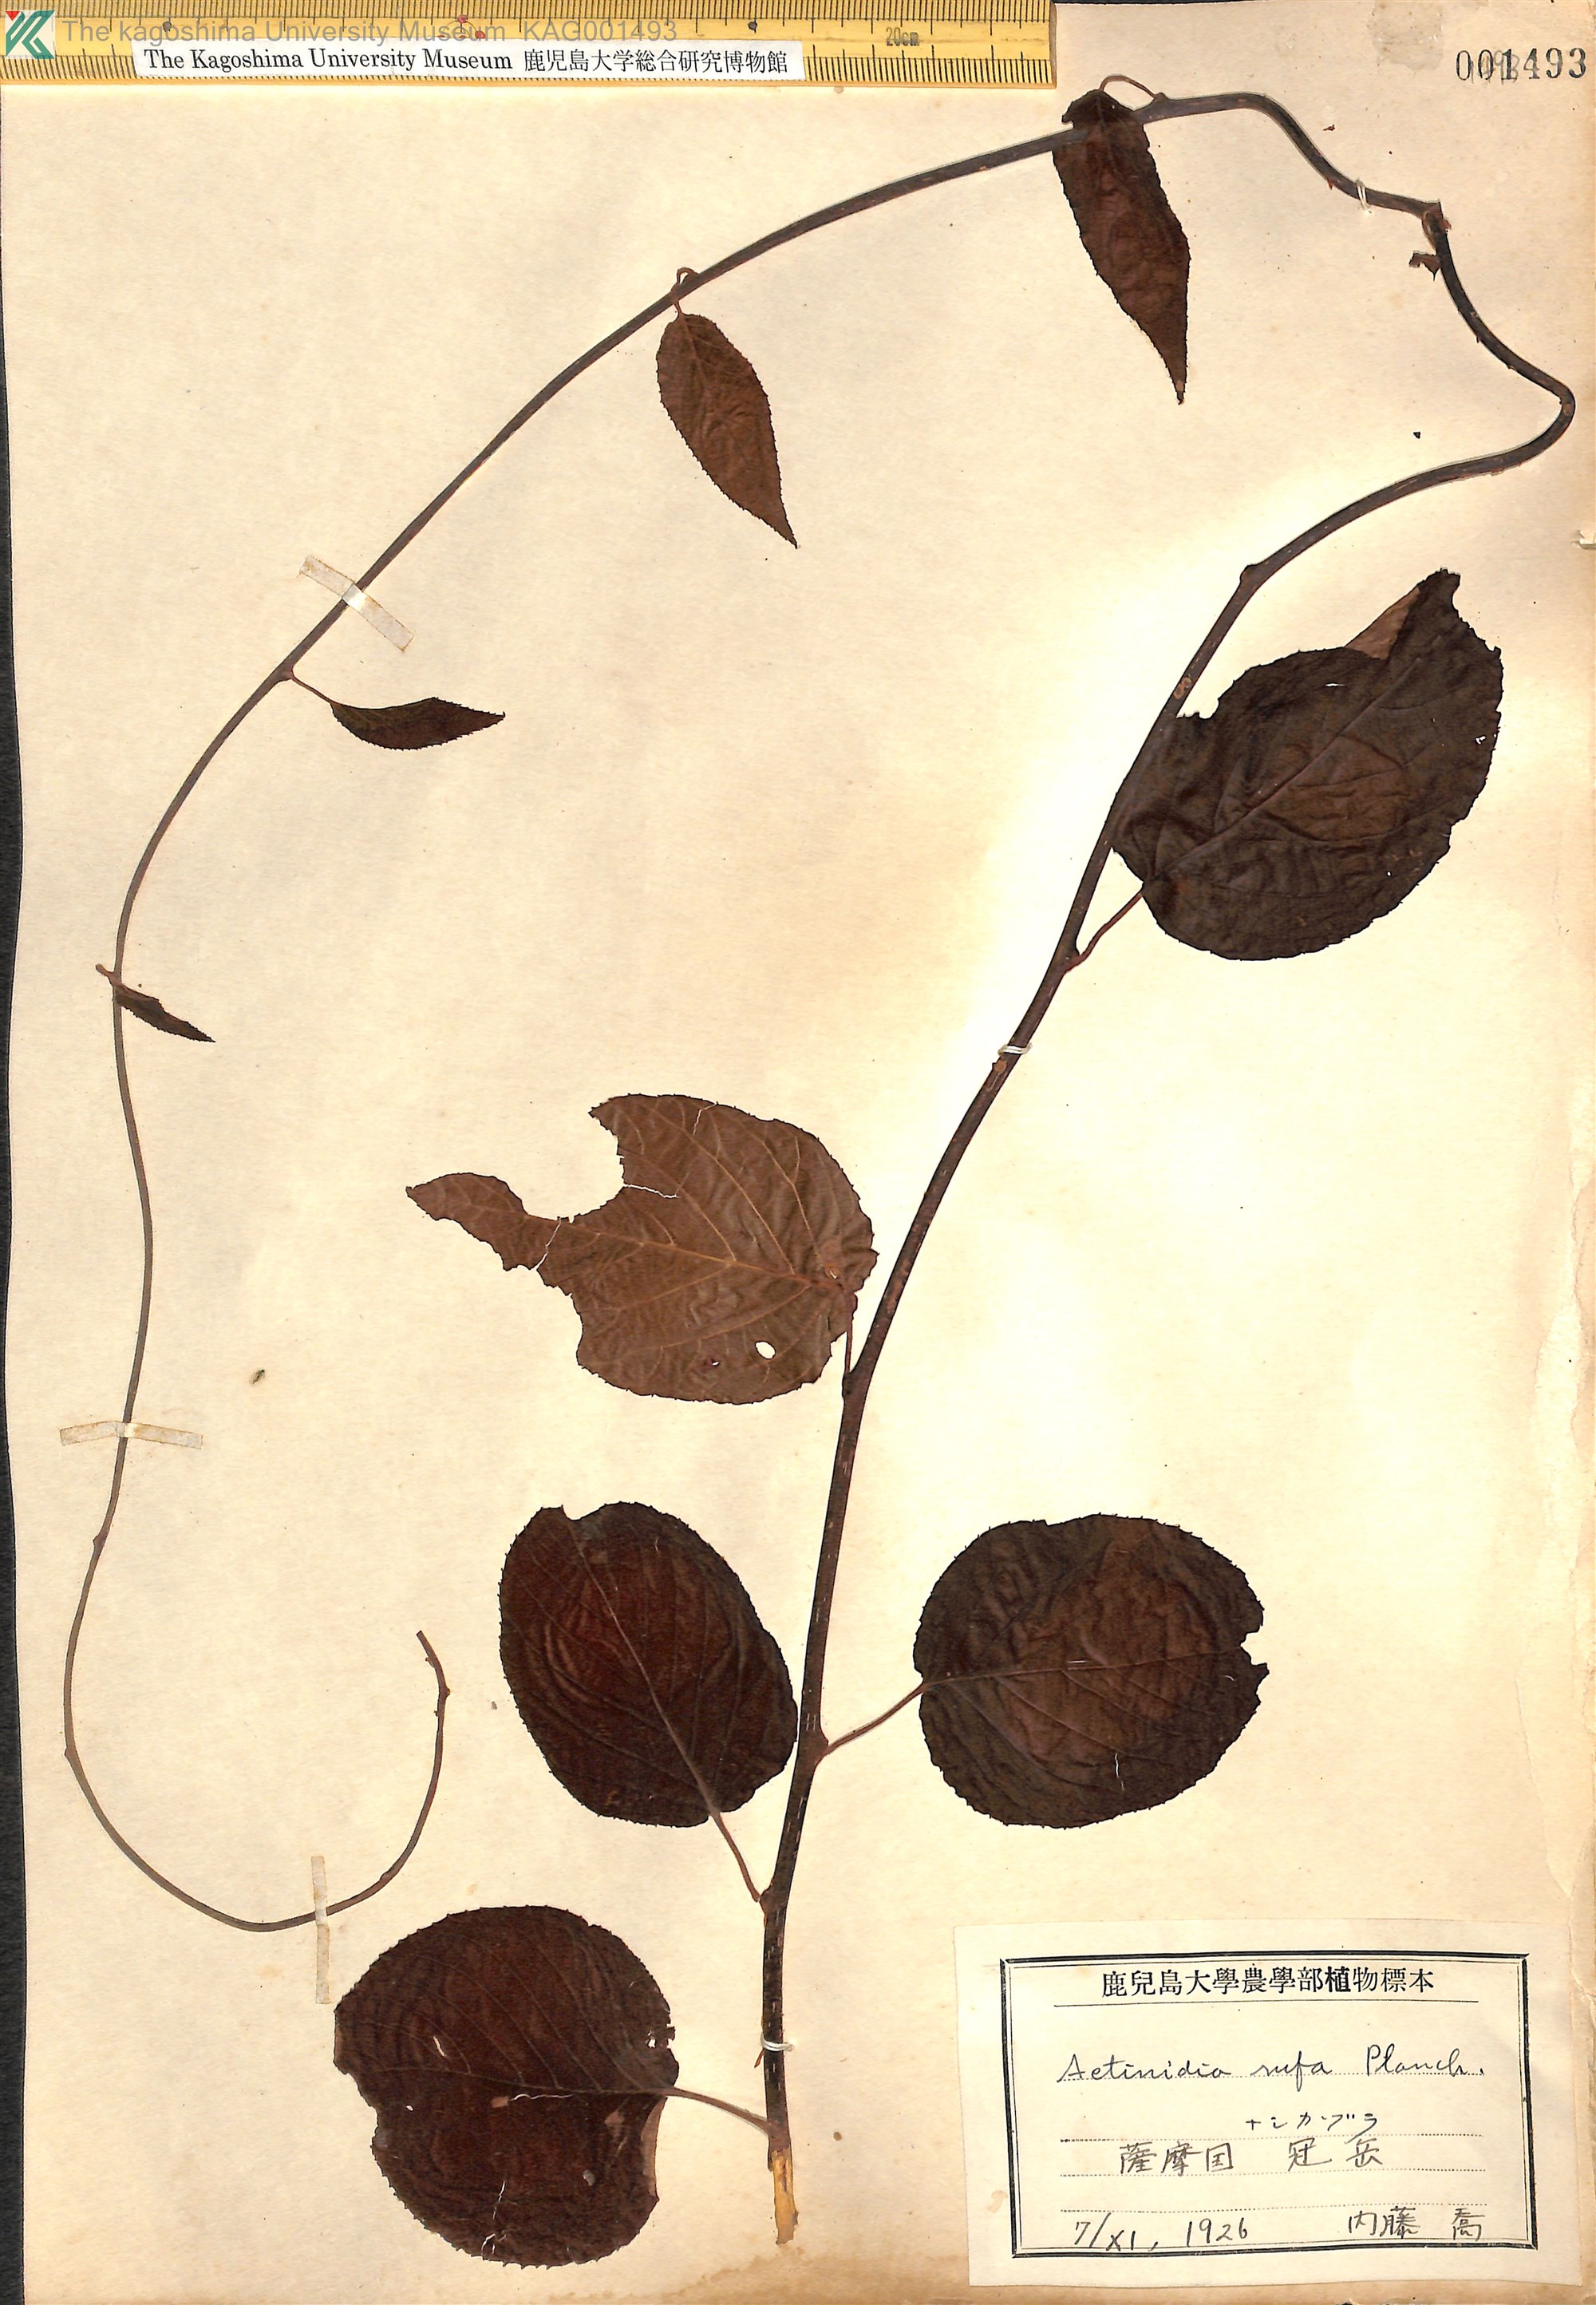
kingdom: Plantae
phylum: Tracheophyta
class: Magnoliopsida
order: Ericales
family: Actinidiaceae
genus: Actinidia
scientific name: Actinidia rufa
